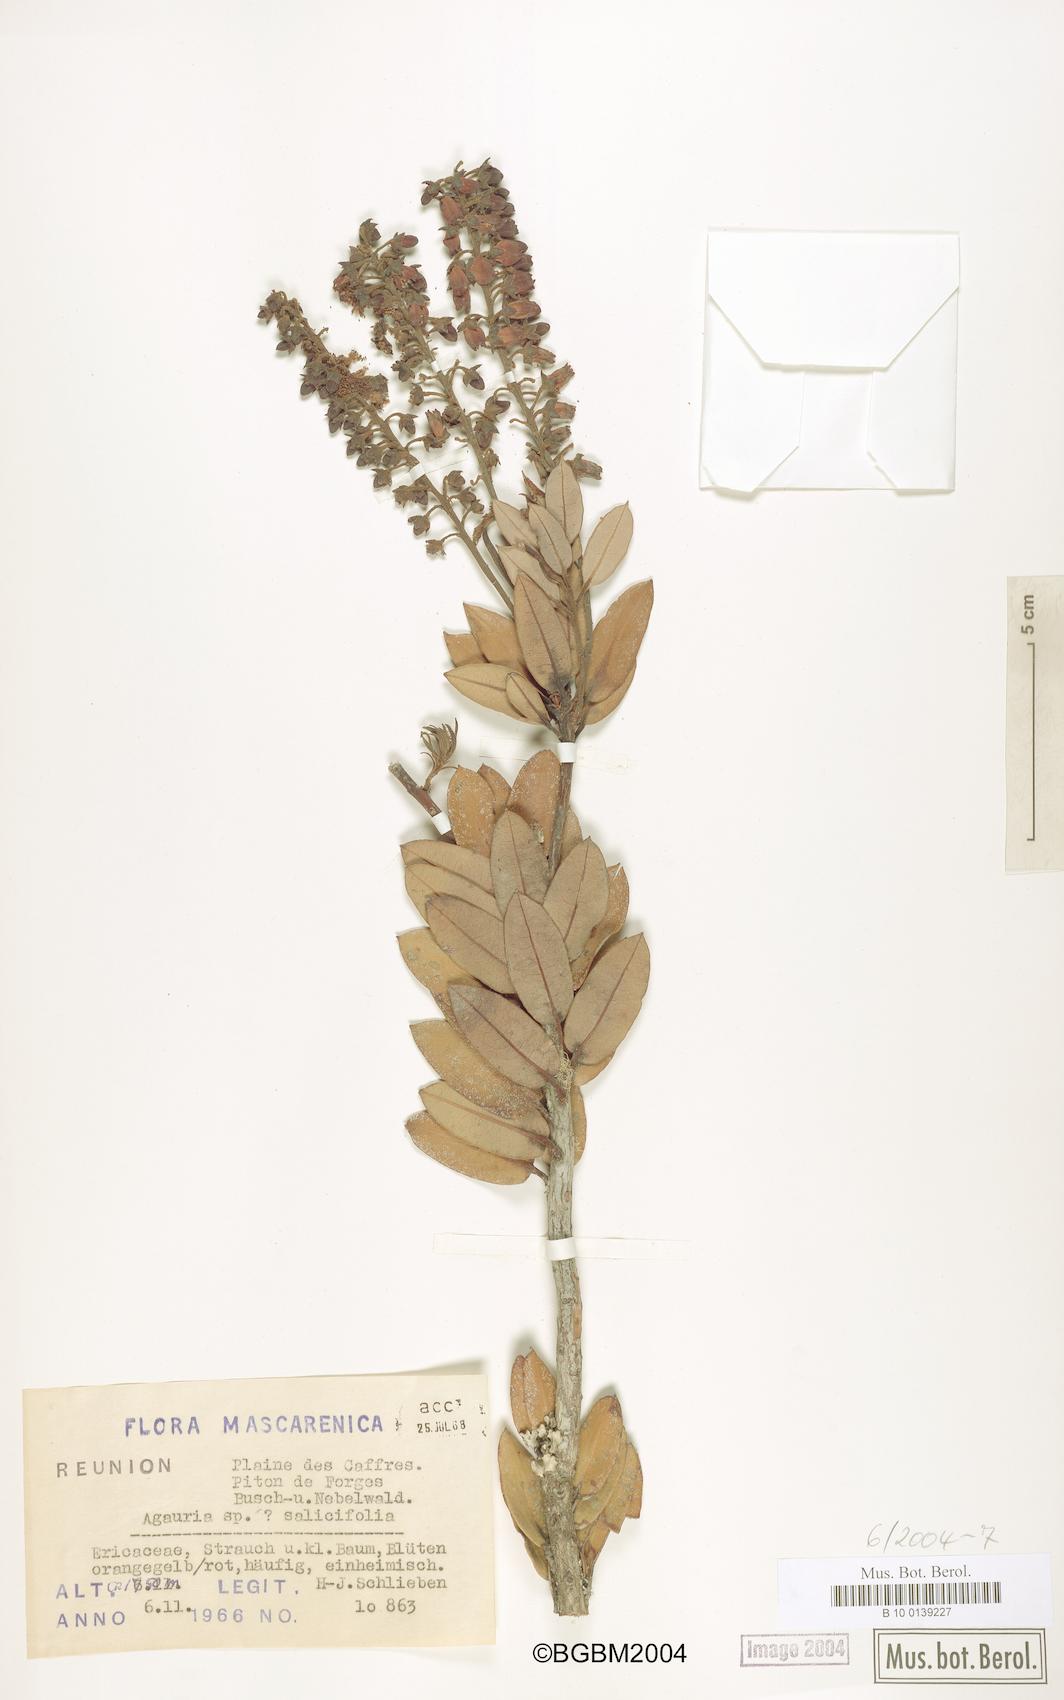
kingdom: Plantae
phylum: Tracheophyta
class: Magnoliopsida
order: Ericales
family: Ericaceae
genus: Agarista
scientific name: Agarista salicifolia
